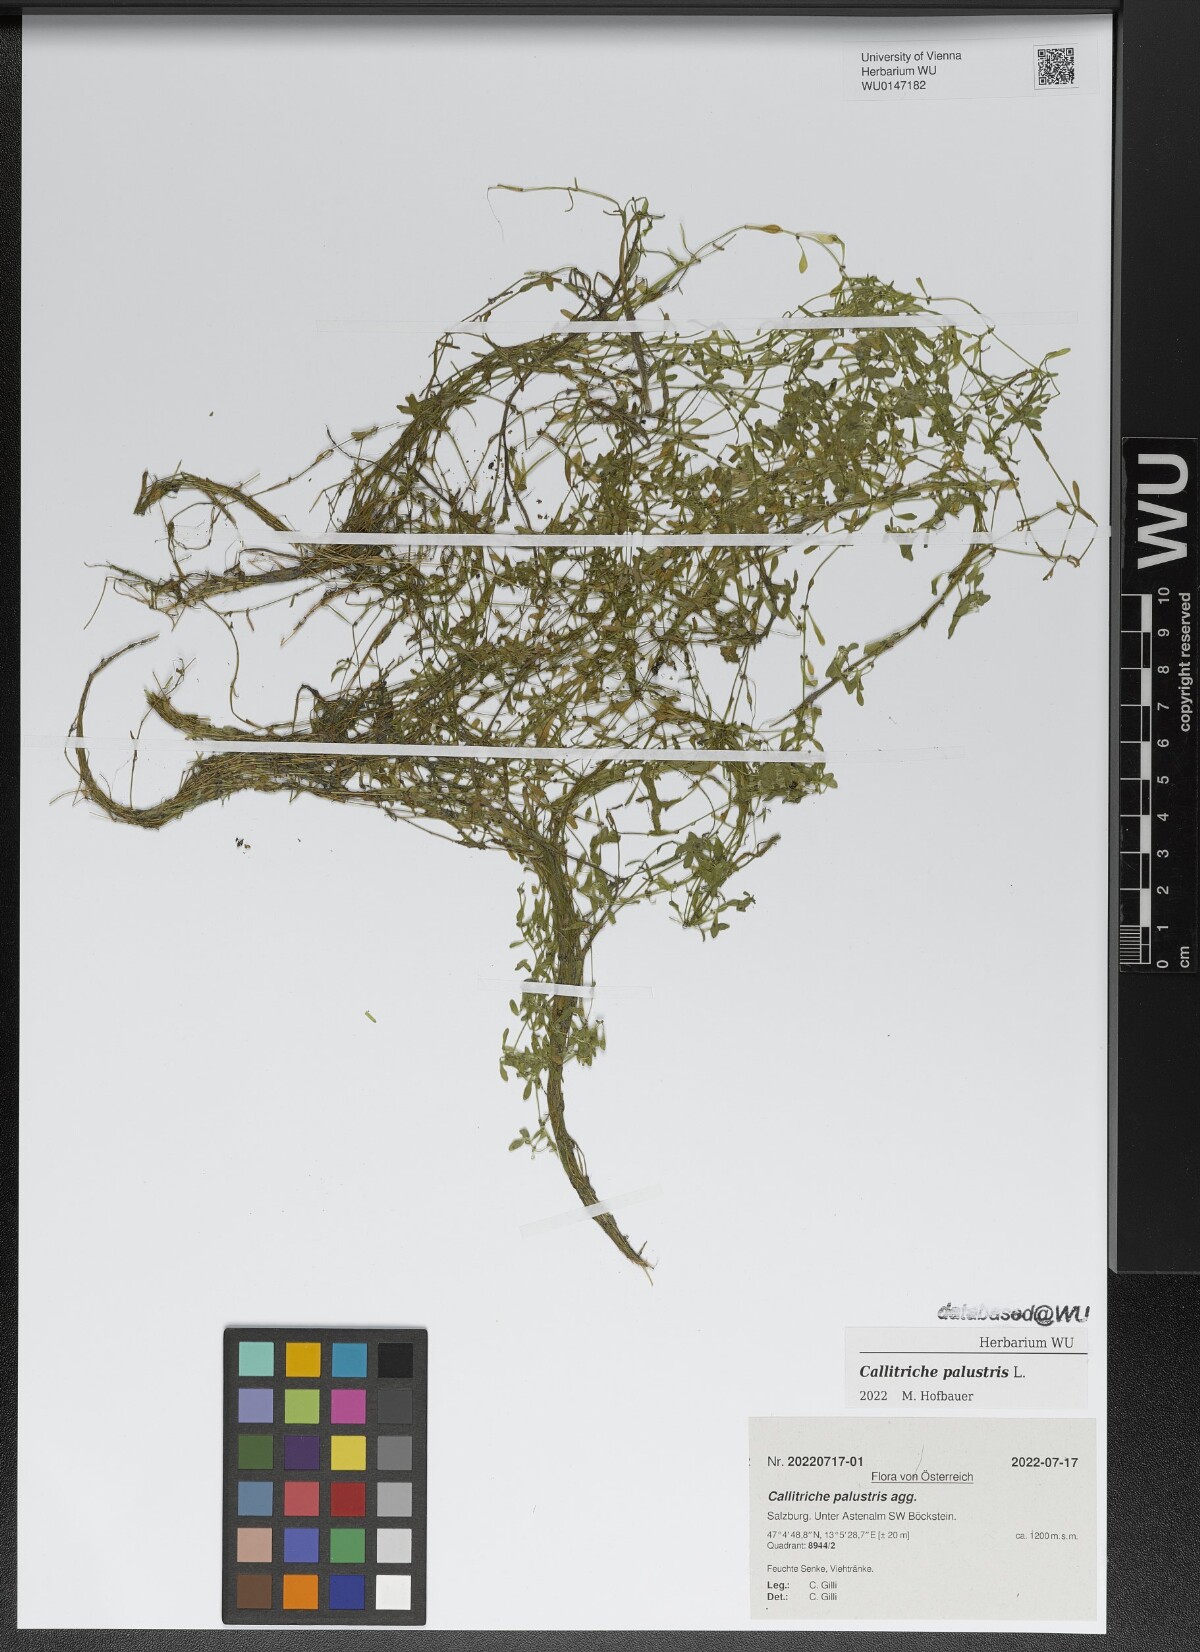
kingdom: Plantae
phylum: Tracheophyta
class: Magnoliopsida
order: Lamiales
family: Plantaginaceae
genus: Callitriche
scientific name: Callitriche palustris
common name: Spring water-starwort
